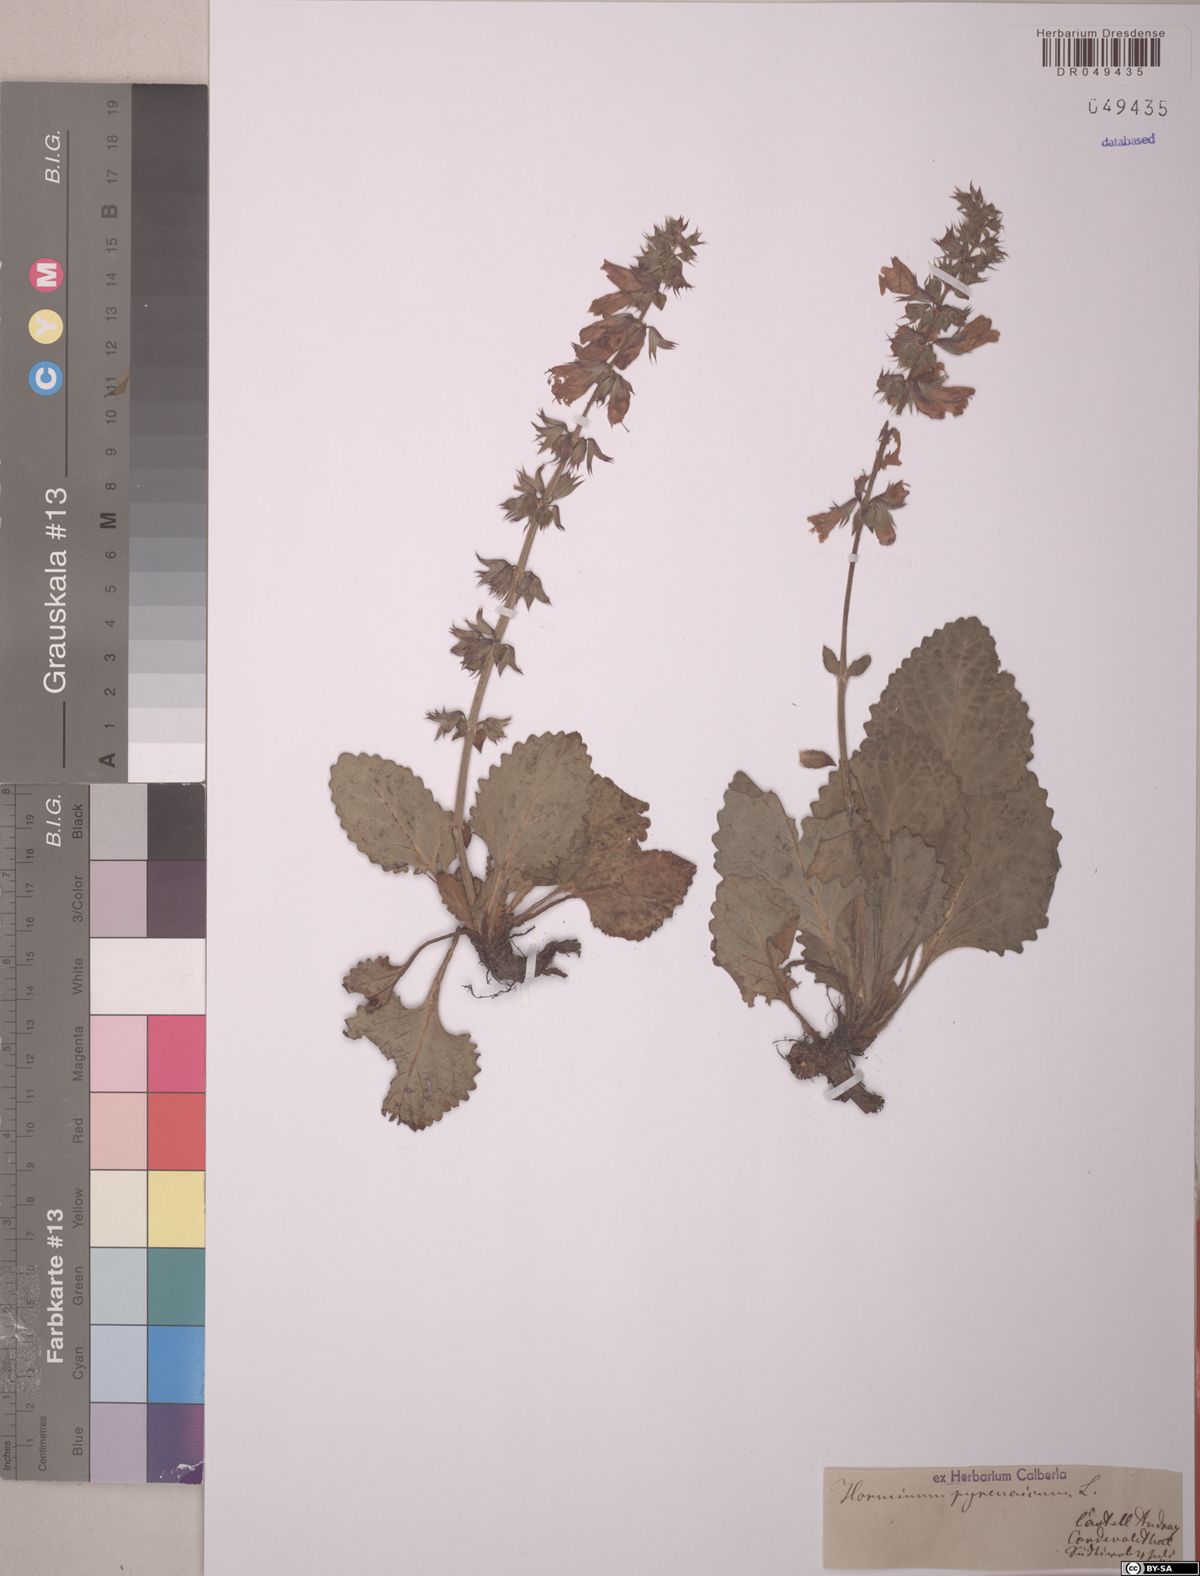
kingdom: Plantae
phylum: Tracheophyta
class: Magnoliopsida
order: Lamiales
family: Lamiaceae
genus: Horminum
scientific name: Horminum pyrenaicum
